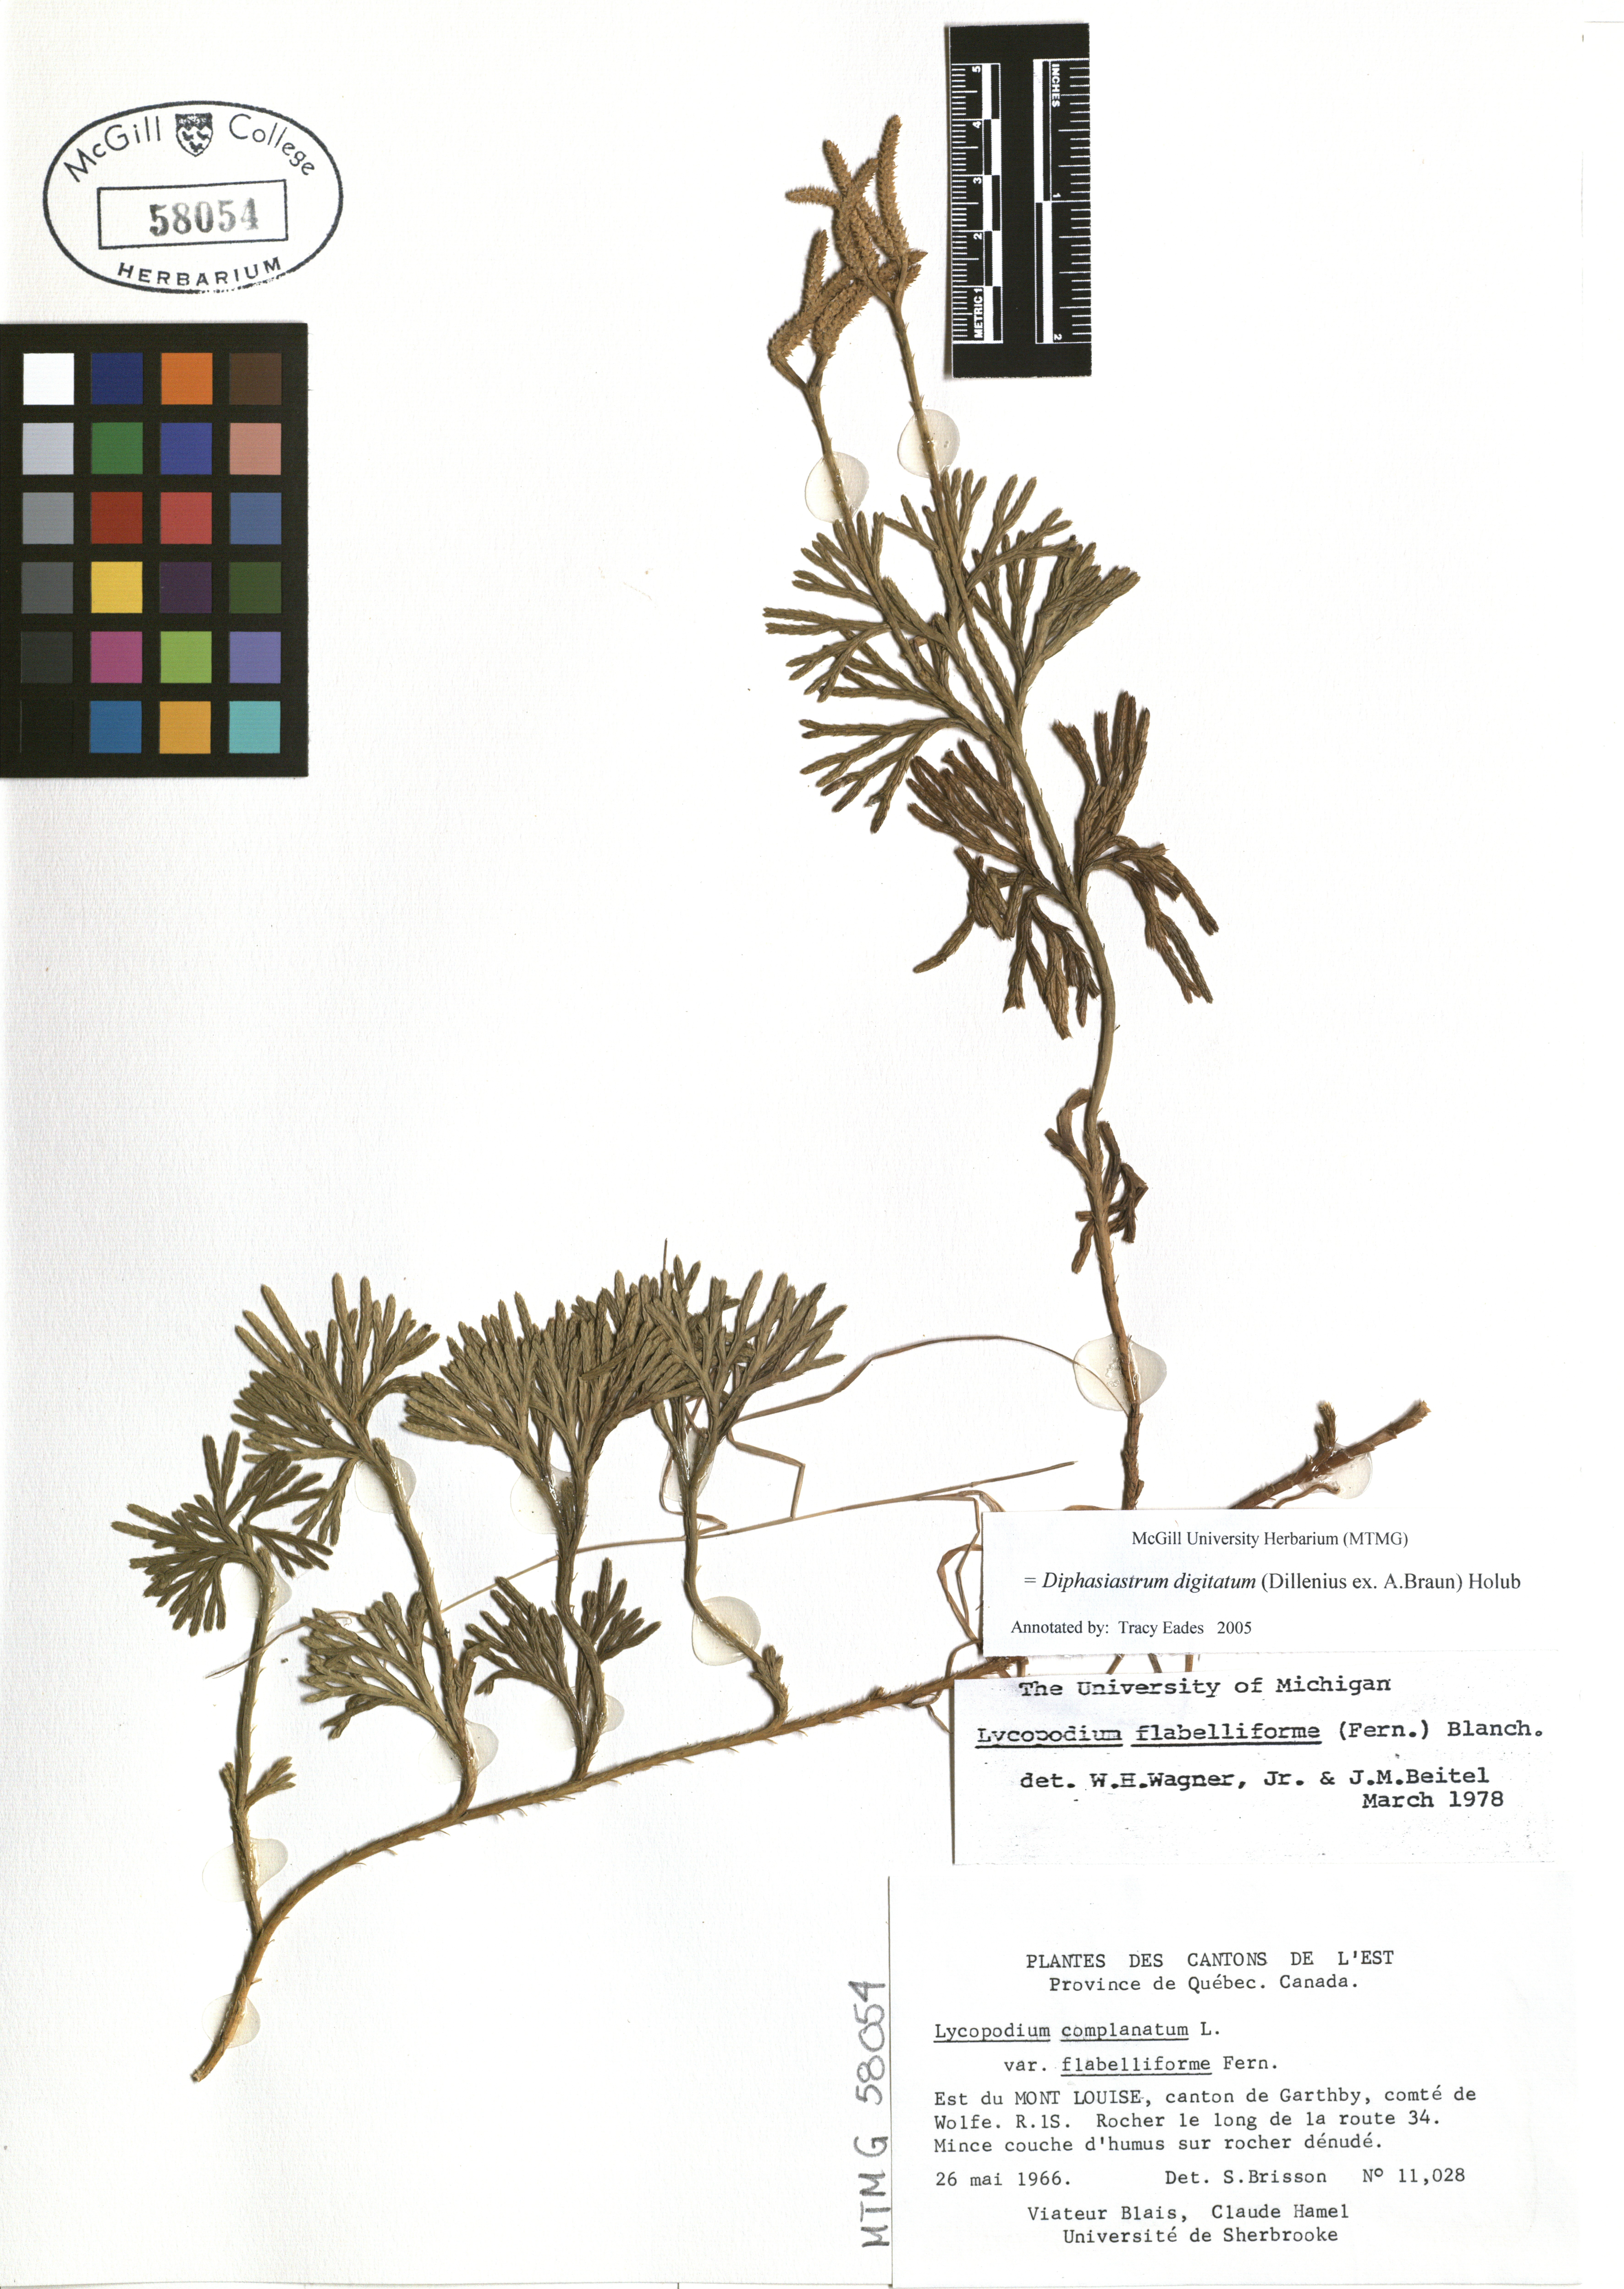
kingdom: Plantae
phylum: Tracheophyta
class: Lycopodiopsida
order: Lycopodiales
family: Lycopodiaceae
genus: Diphasiastrum
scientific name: Diphasiastrum digitatum
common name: Southern running-pine
